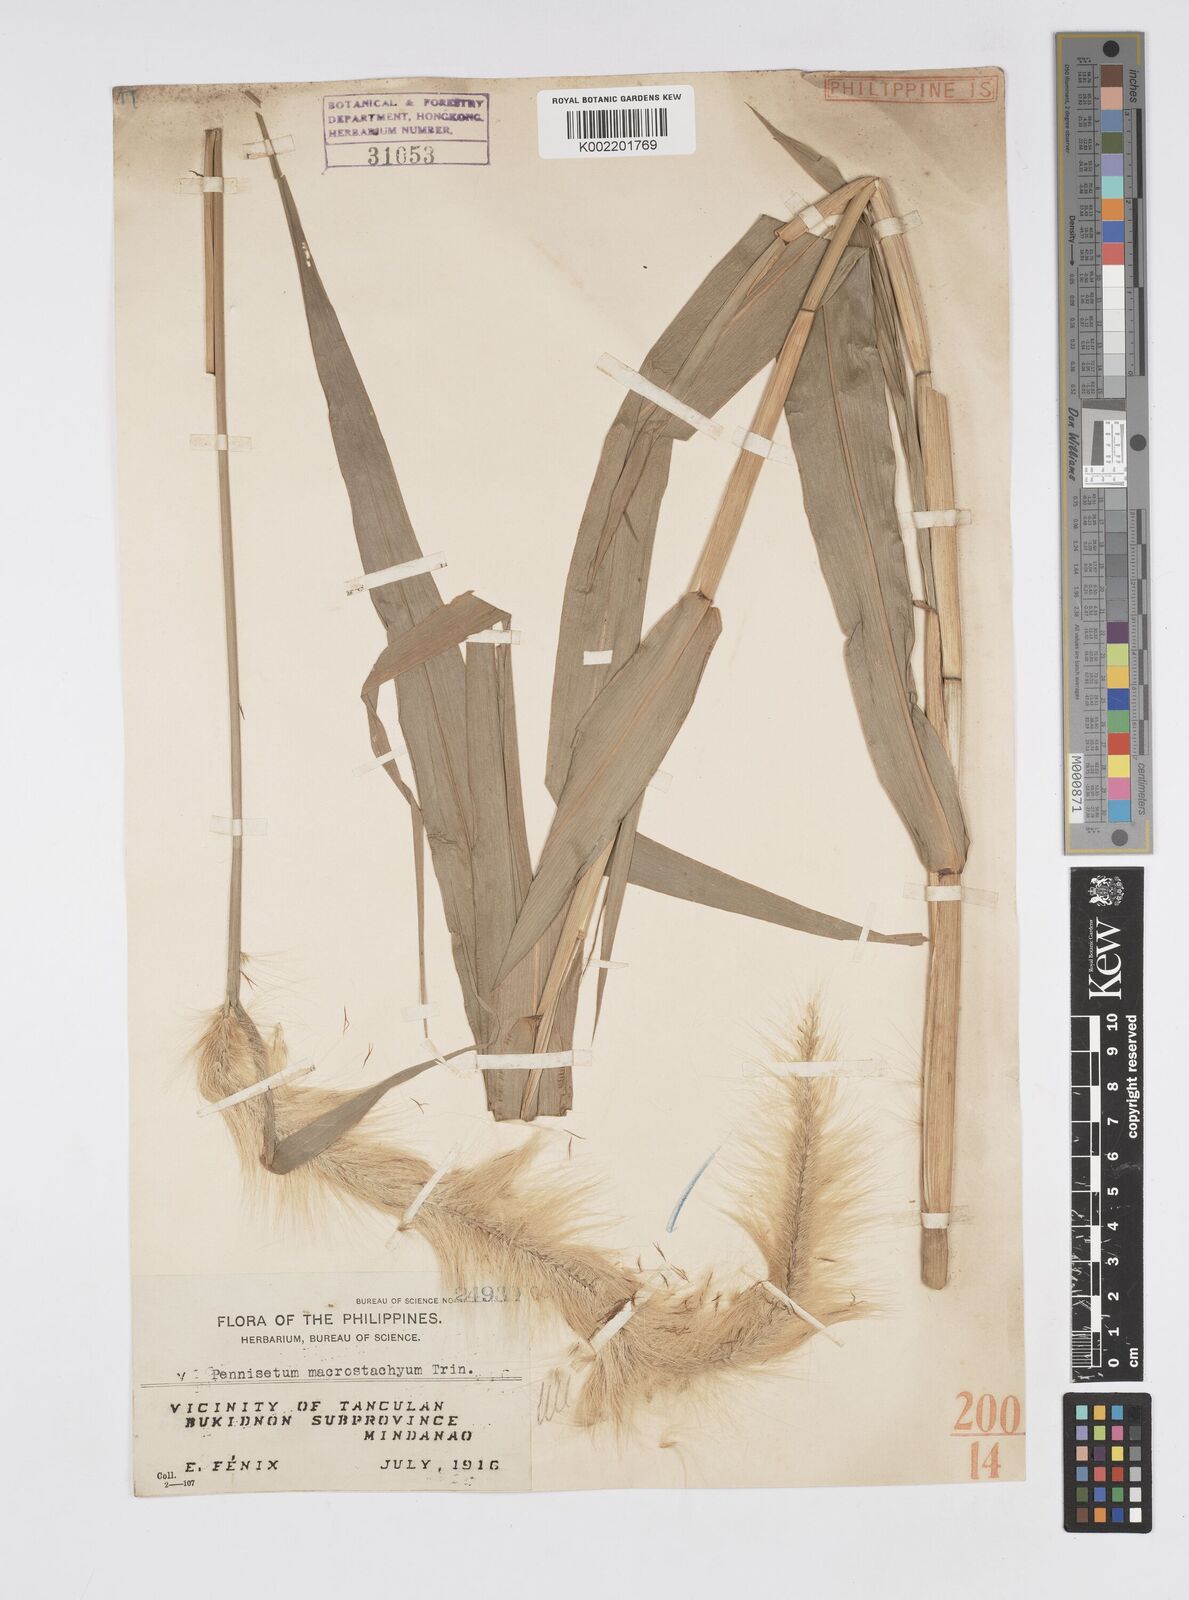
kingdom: Plantae
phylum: Tracheophyta
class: Liliopsida
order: Poales
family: Poaceae
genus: Cenchrus
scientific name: Cenchrus purpureus
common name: Elephant grass
